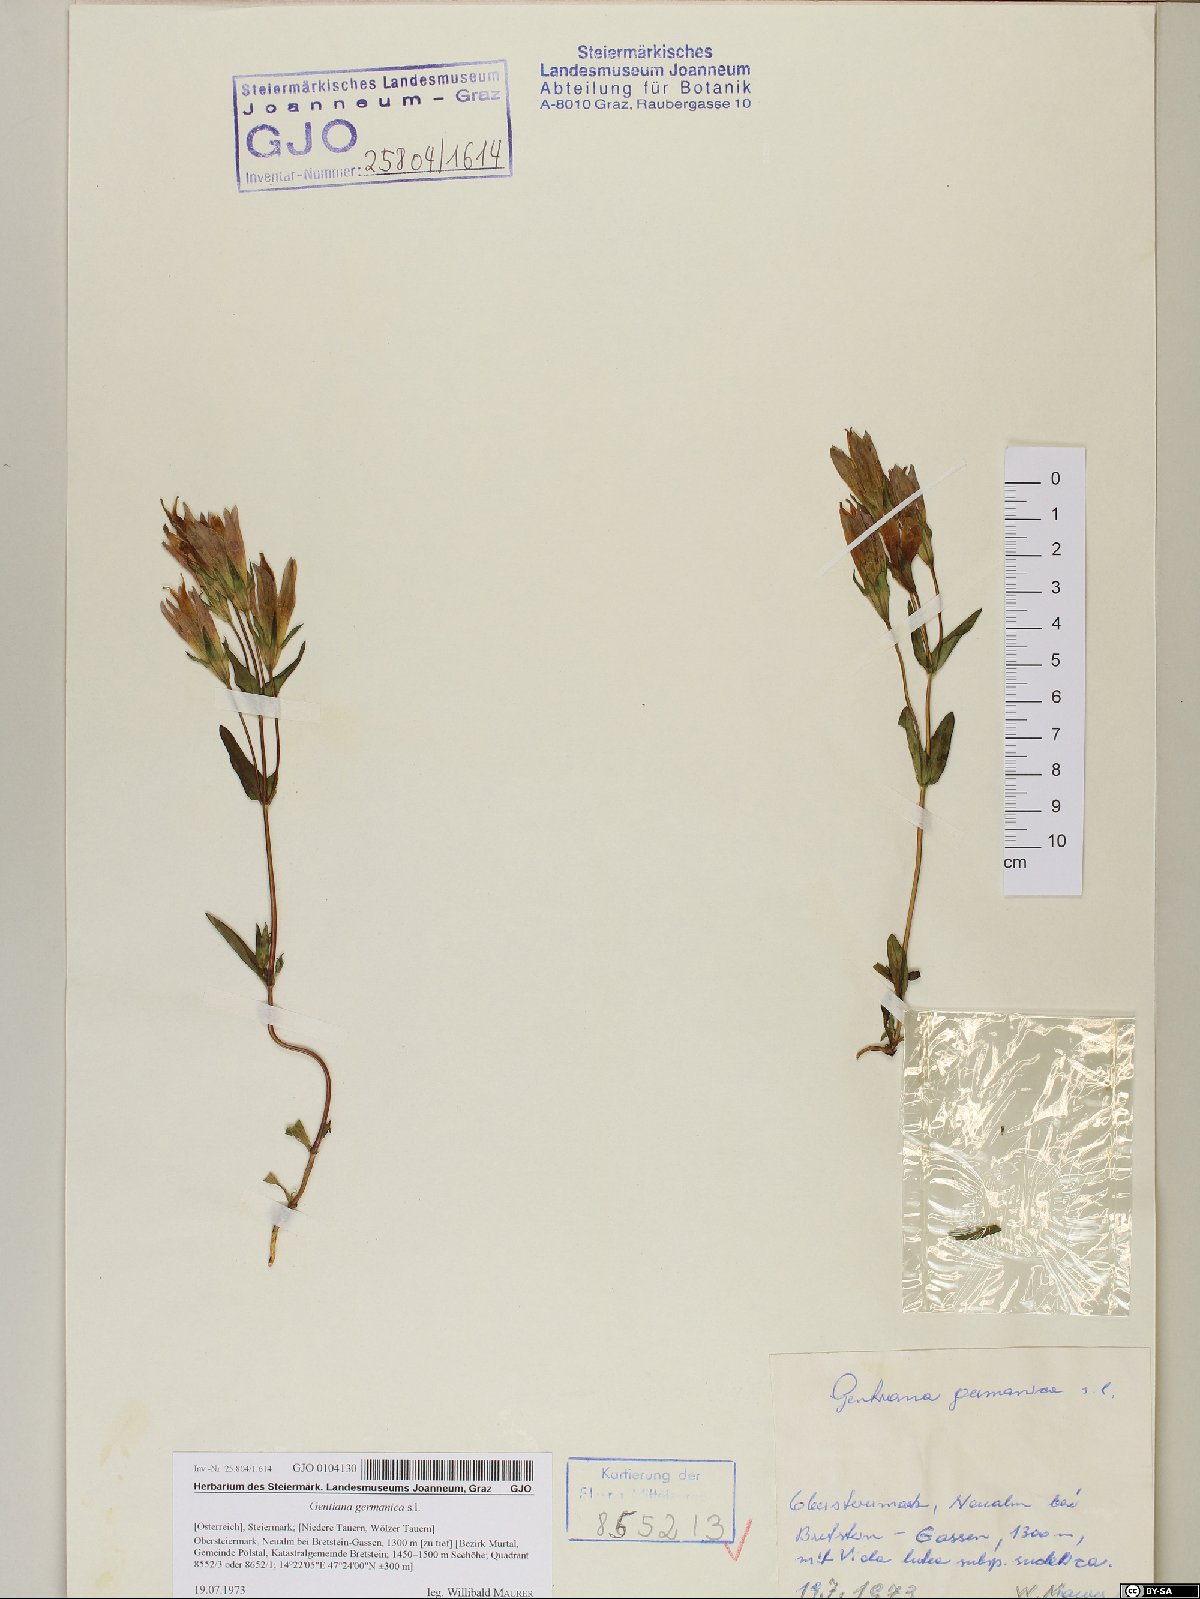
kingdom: Plantae
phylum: Tracheophyta
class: Magnoliopsida
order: Gentianales
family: Gentianaceae
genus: Gentianella
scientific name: Gentianella germanica
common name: Chiltern-gentian
